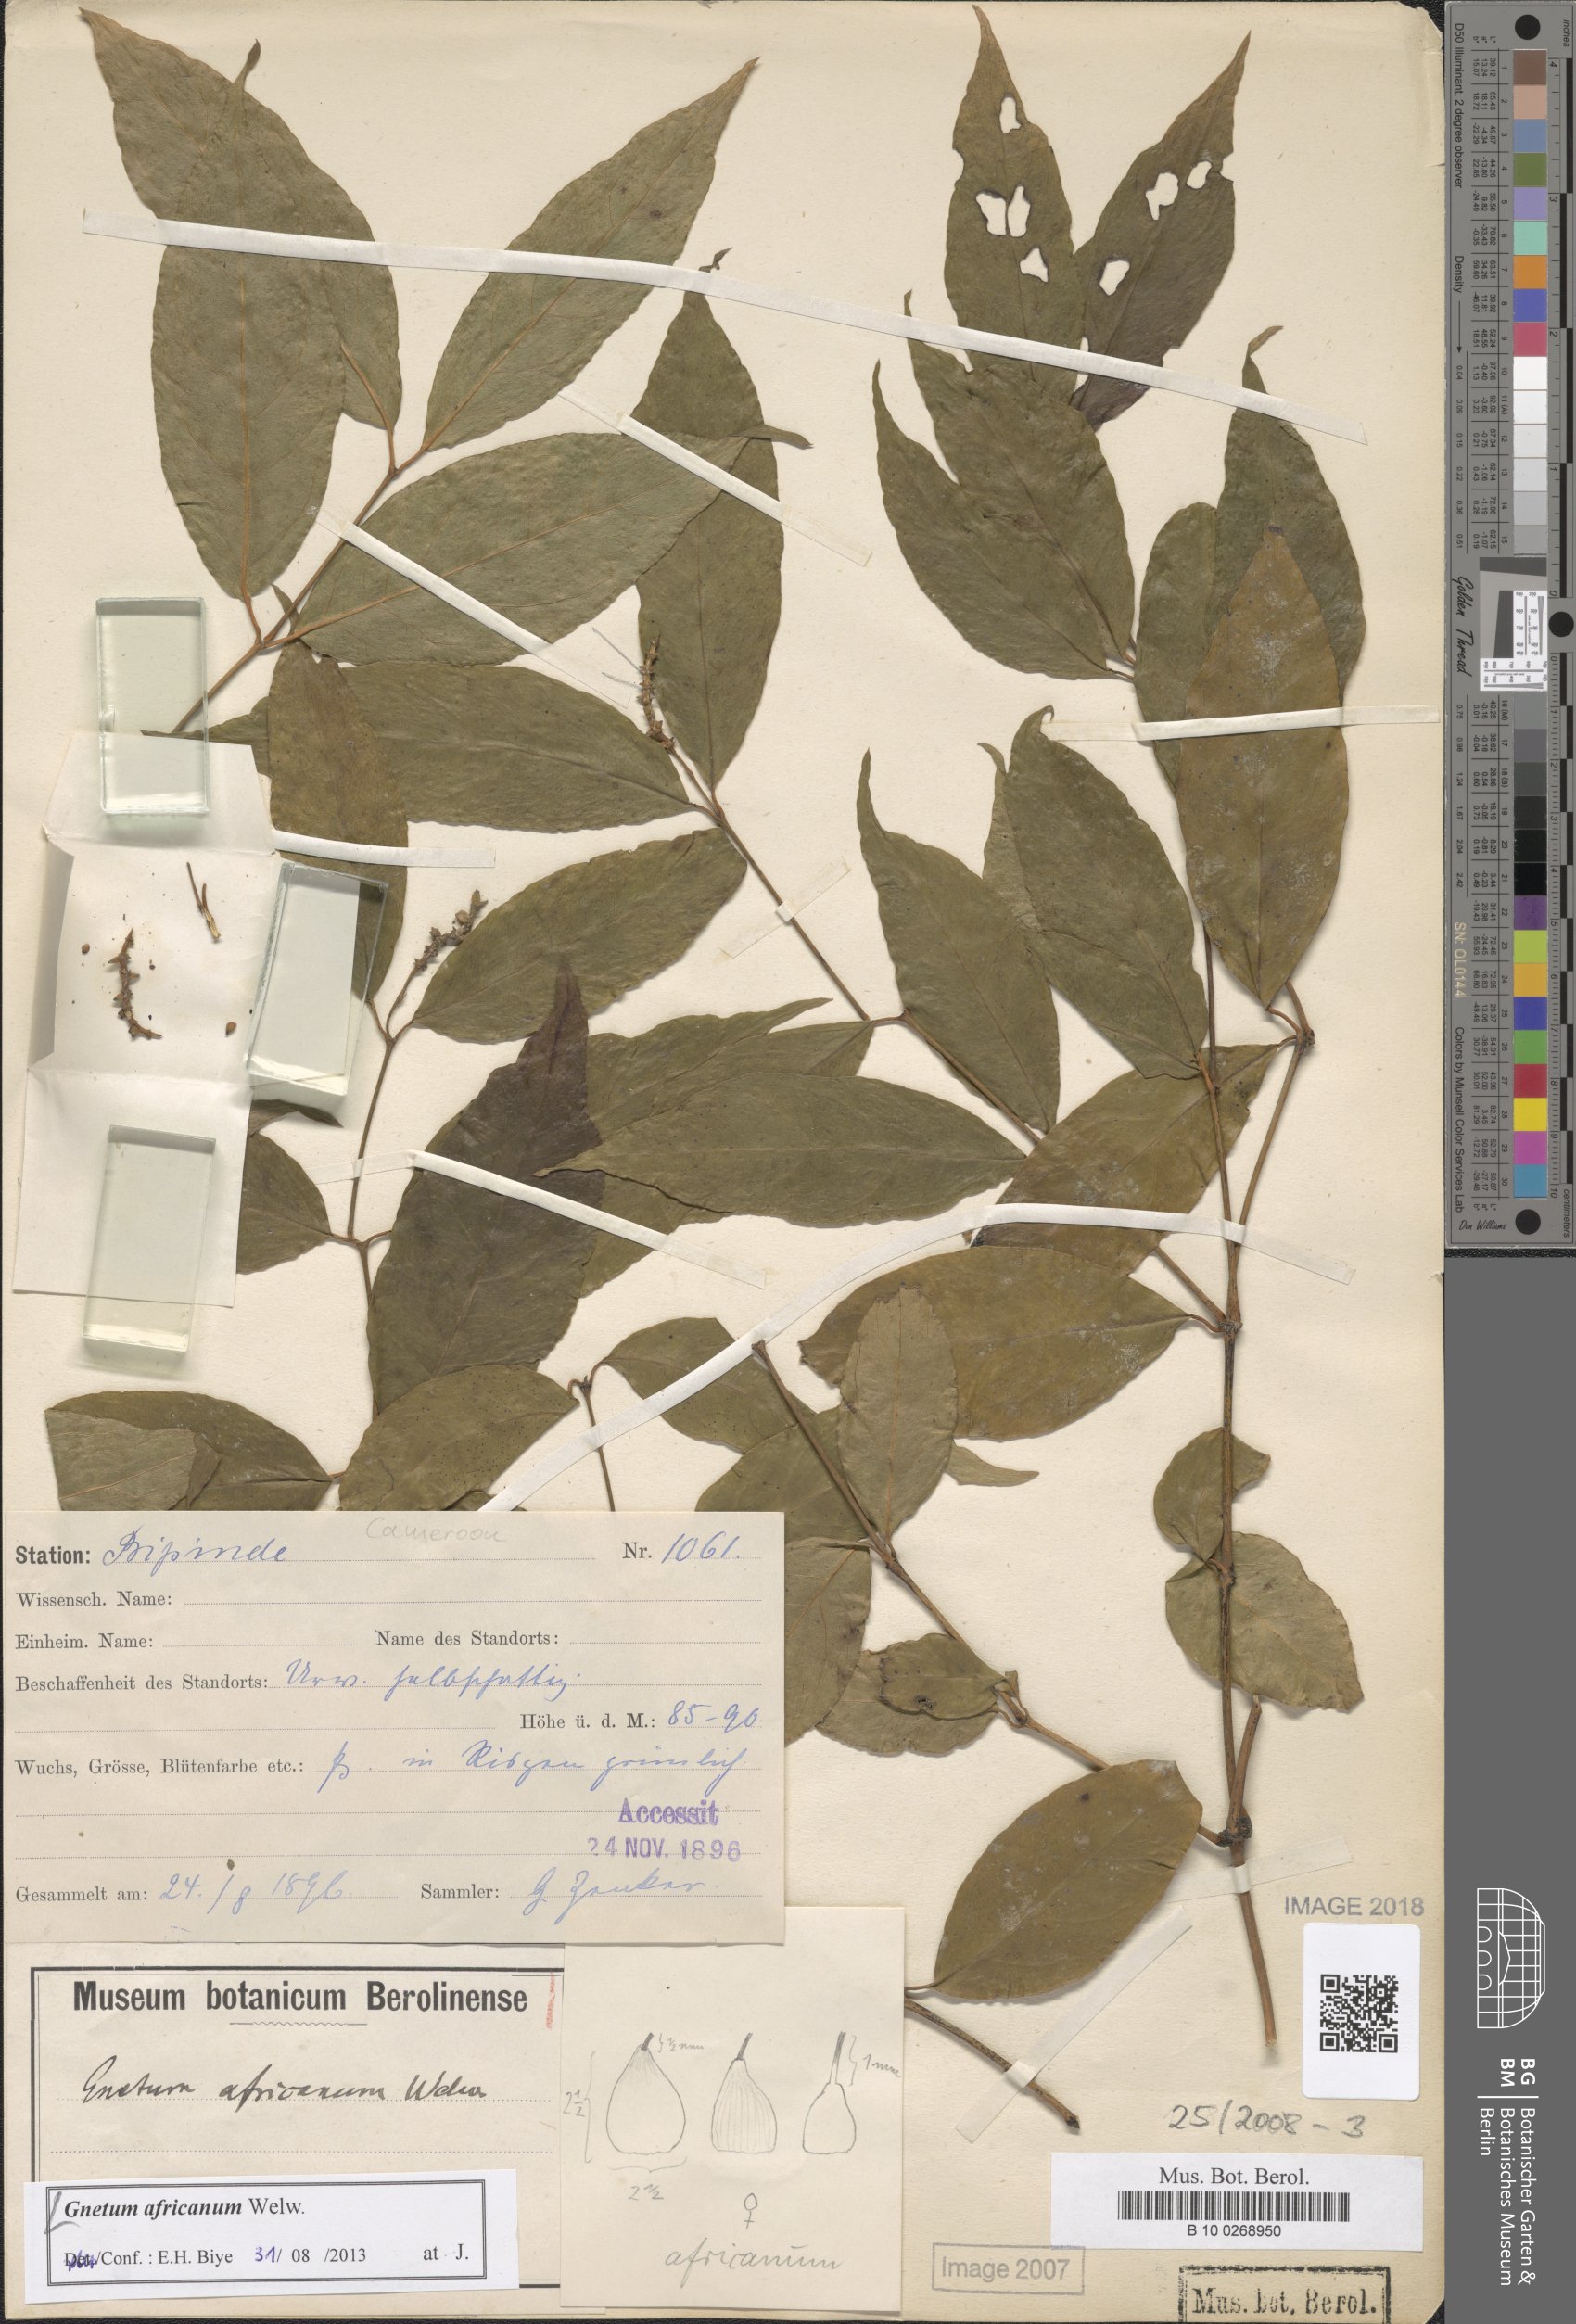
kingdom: Plantae
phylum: Tracheophyta
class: Gnetopsida
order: Gnetales
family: Gnetaceae
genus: Gnetum
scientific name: Gnetum africanum
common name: Eru
